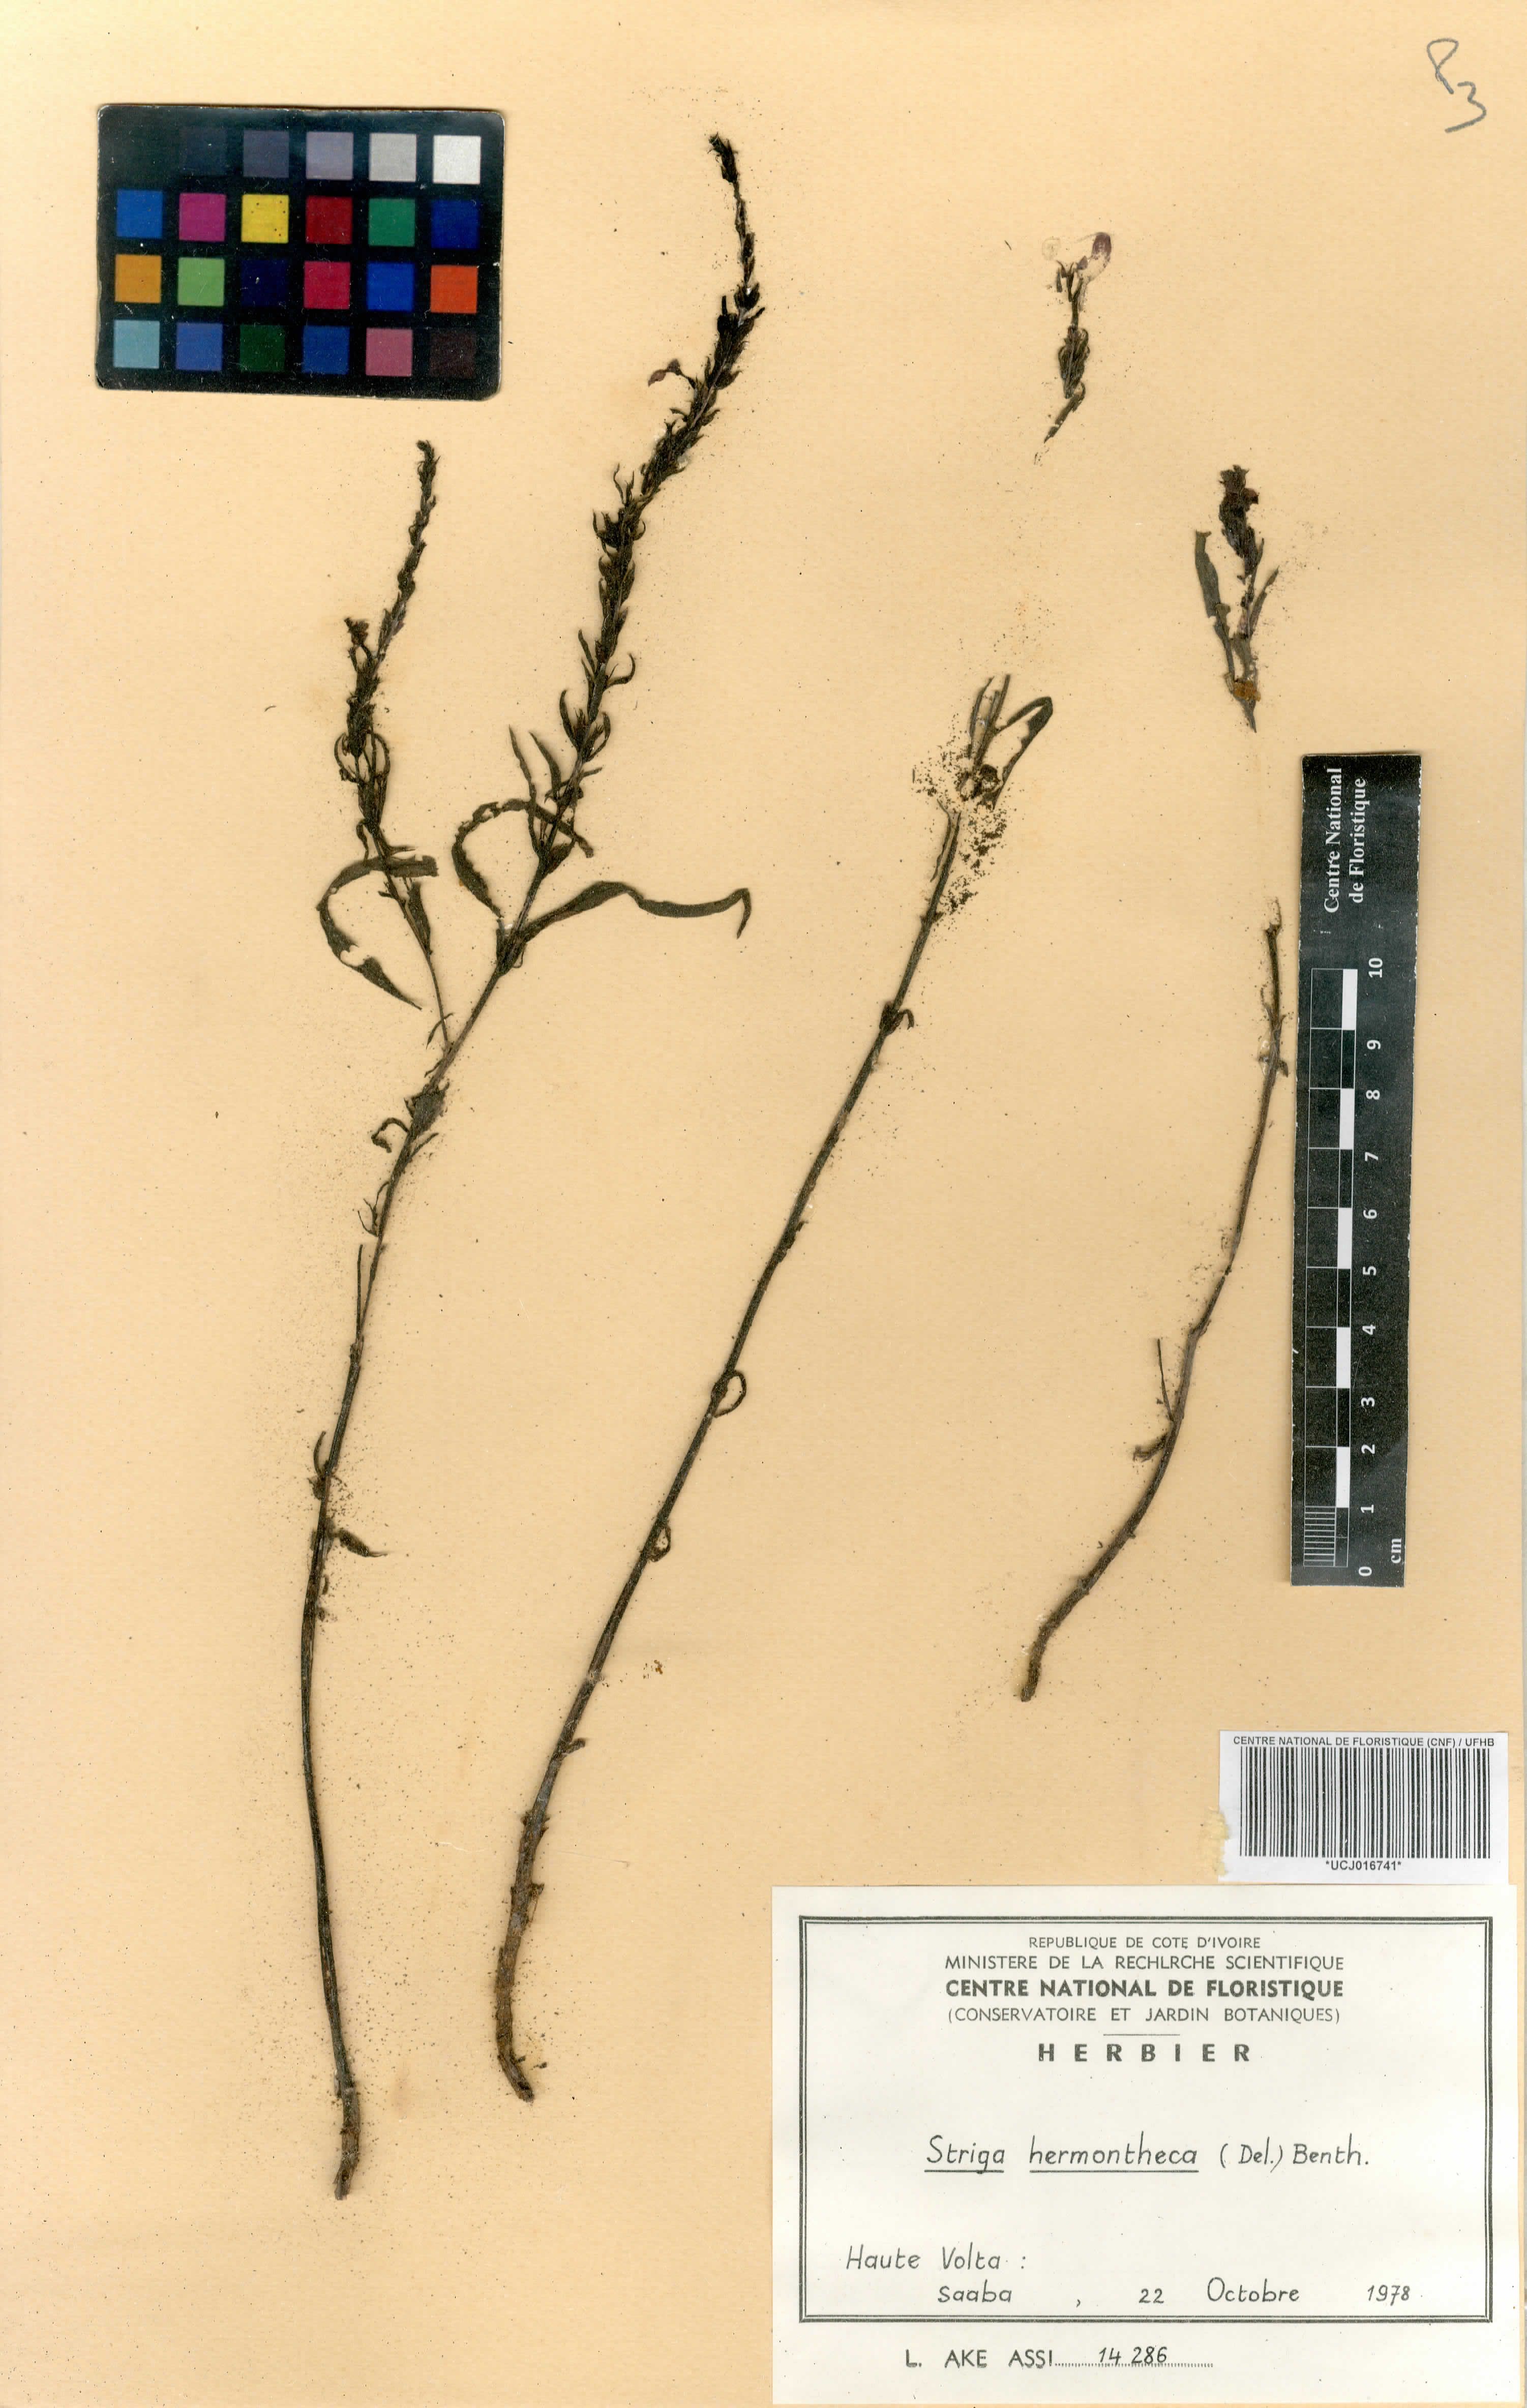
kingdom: Plantae
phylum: Tracheophyta
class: Magnoliopsida
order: Lamiales
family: Orobanchaceae
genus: Striga
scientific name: Striga hermonthica
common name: Purple witchweed
